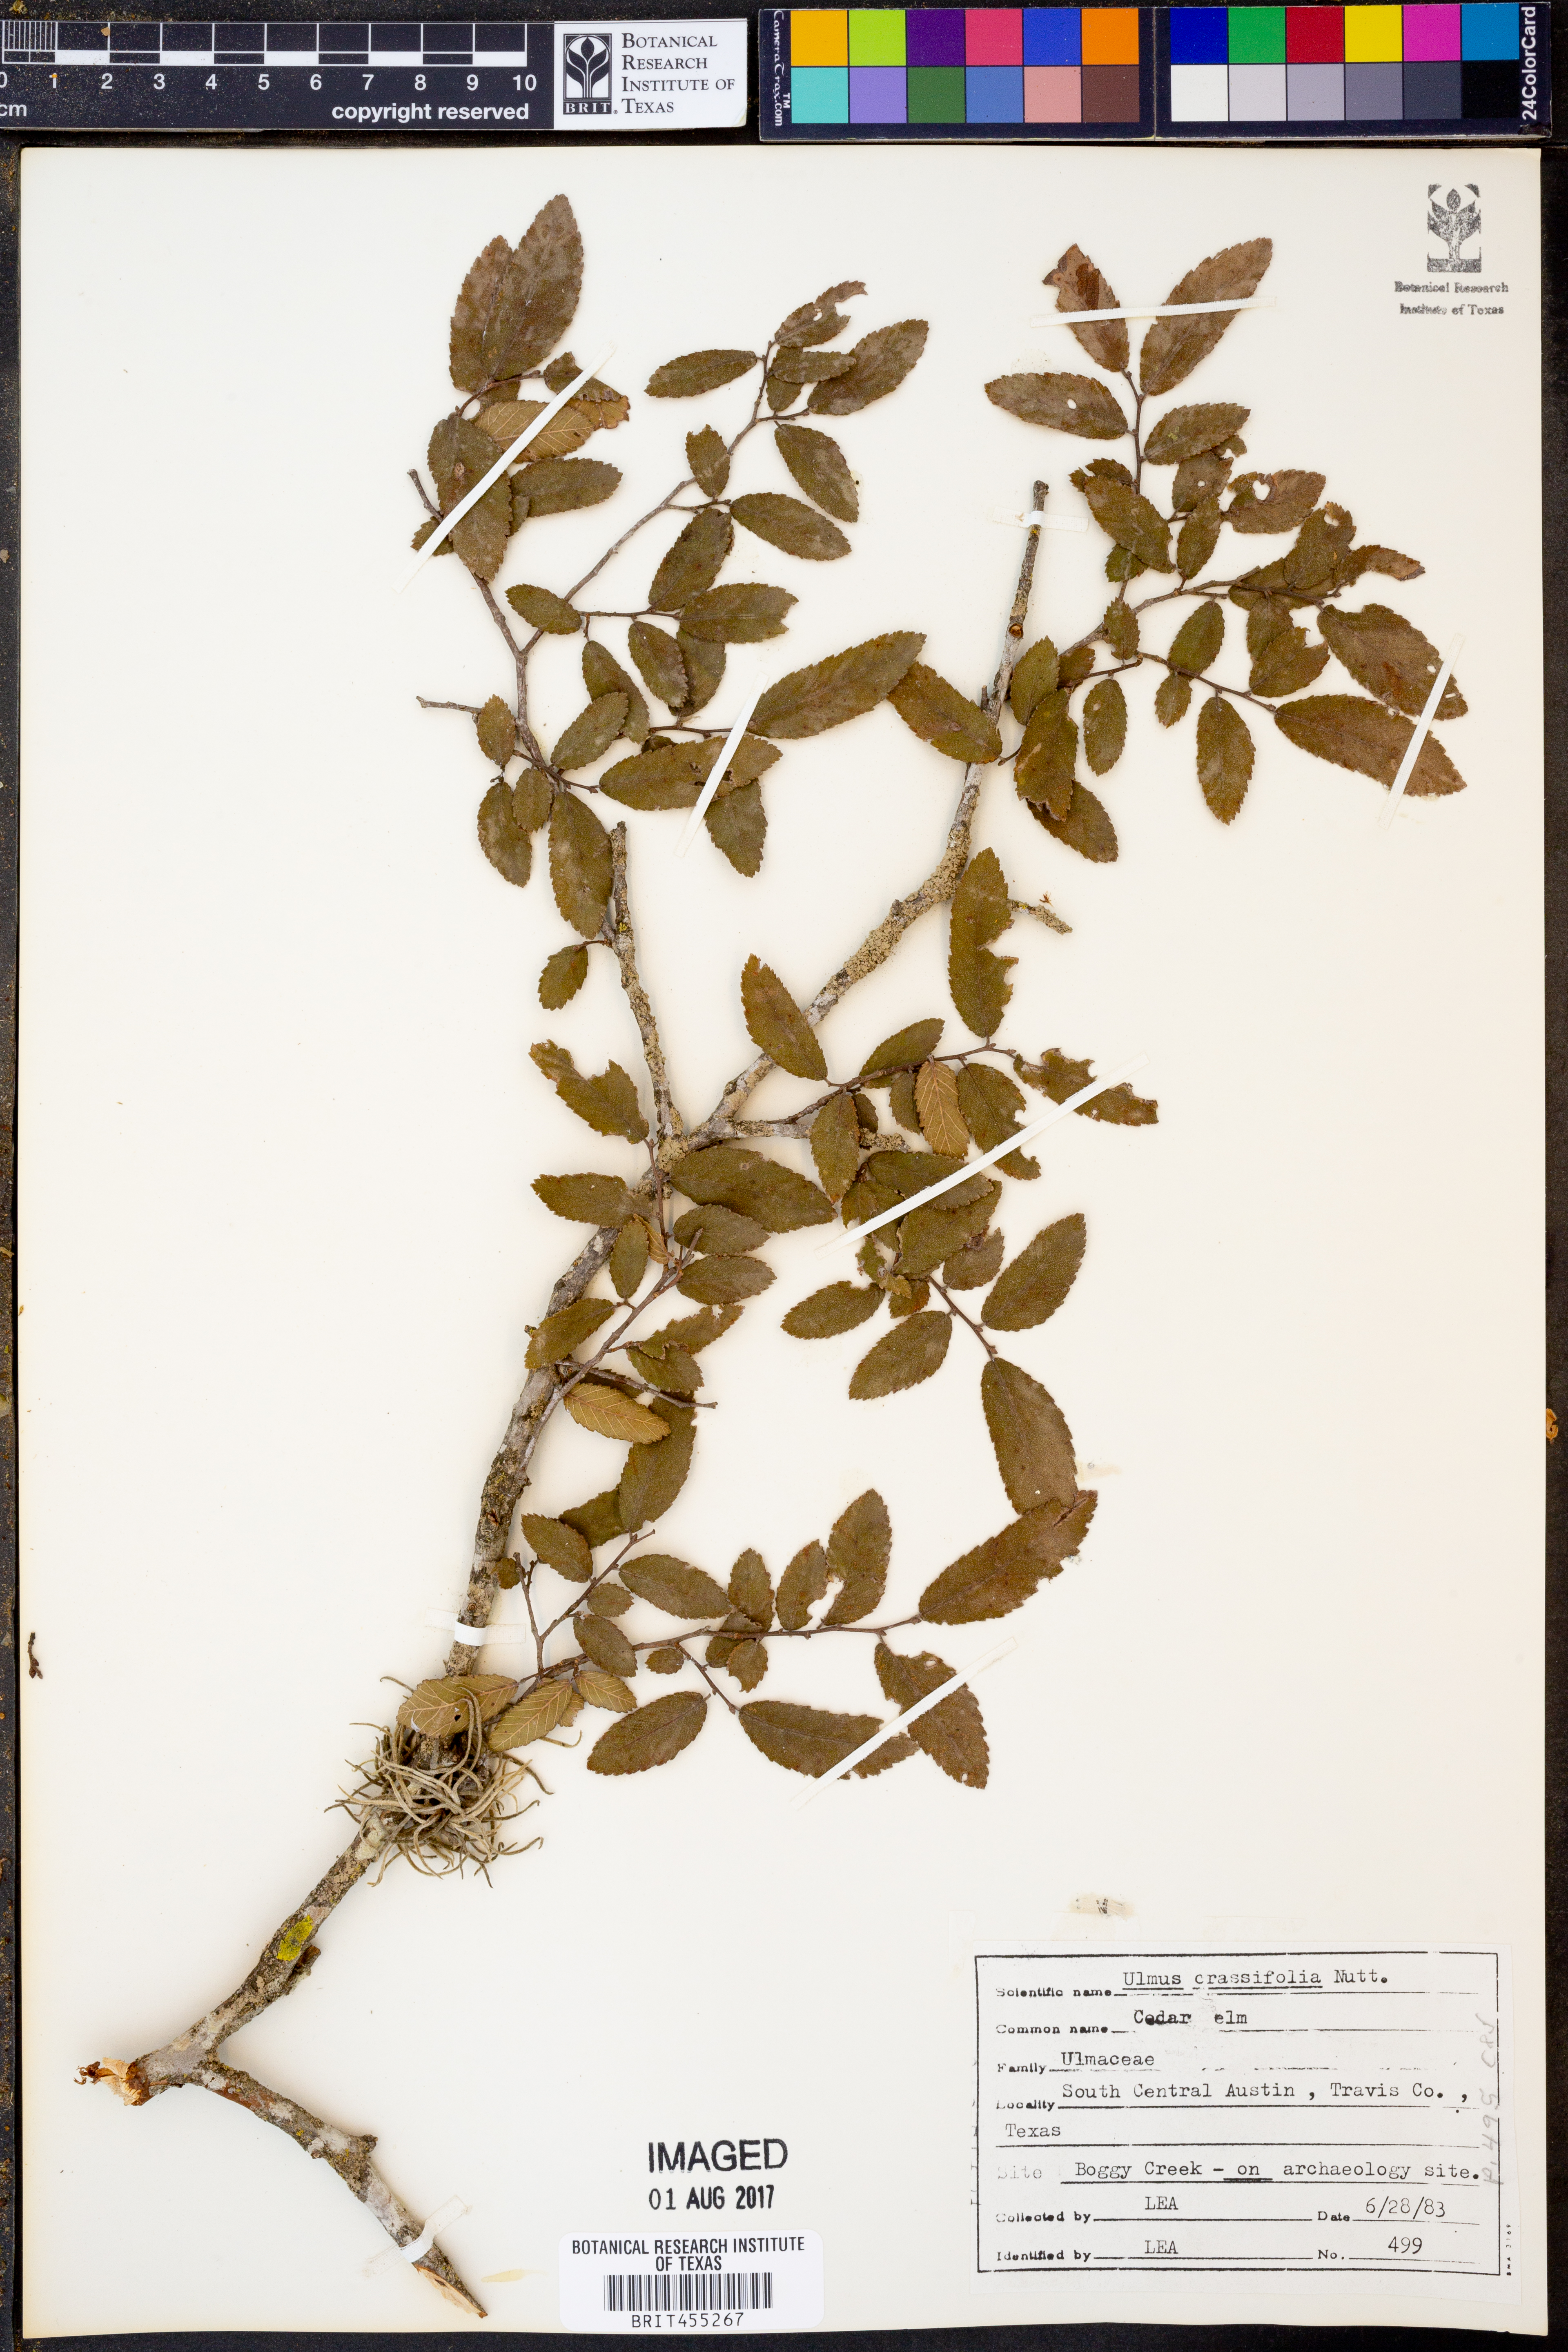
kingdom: Plantae
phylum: Tracheophyta
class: Magnoliopsida
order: Rosales
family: Ulmaceae
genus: Ulmus
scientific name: Ulmus crassifolia
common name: Basket elm
